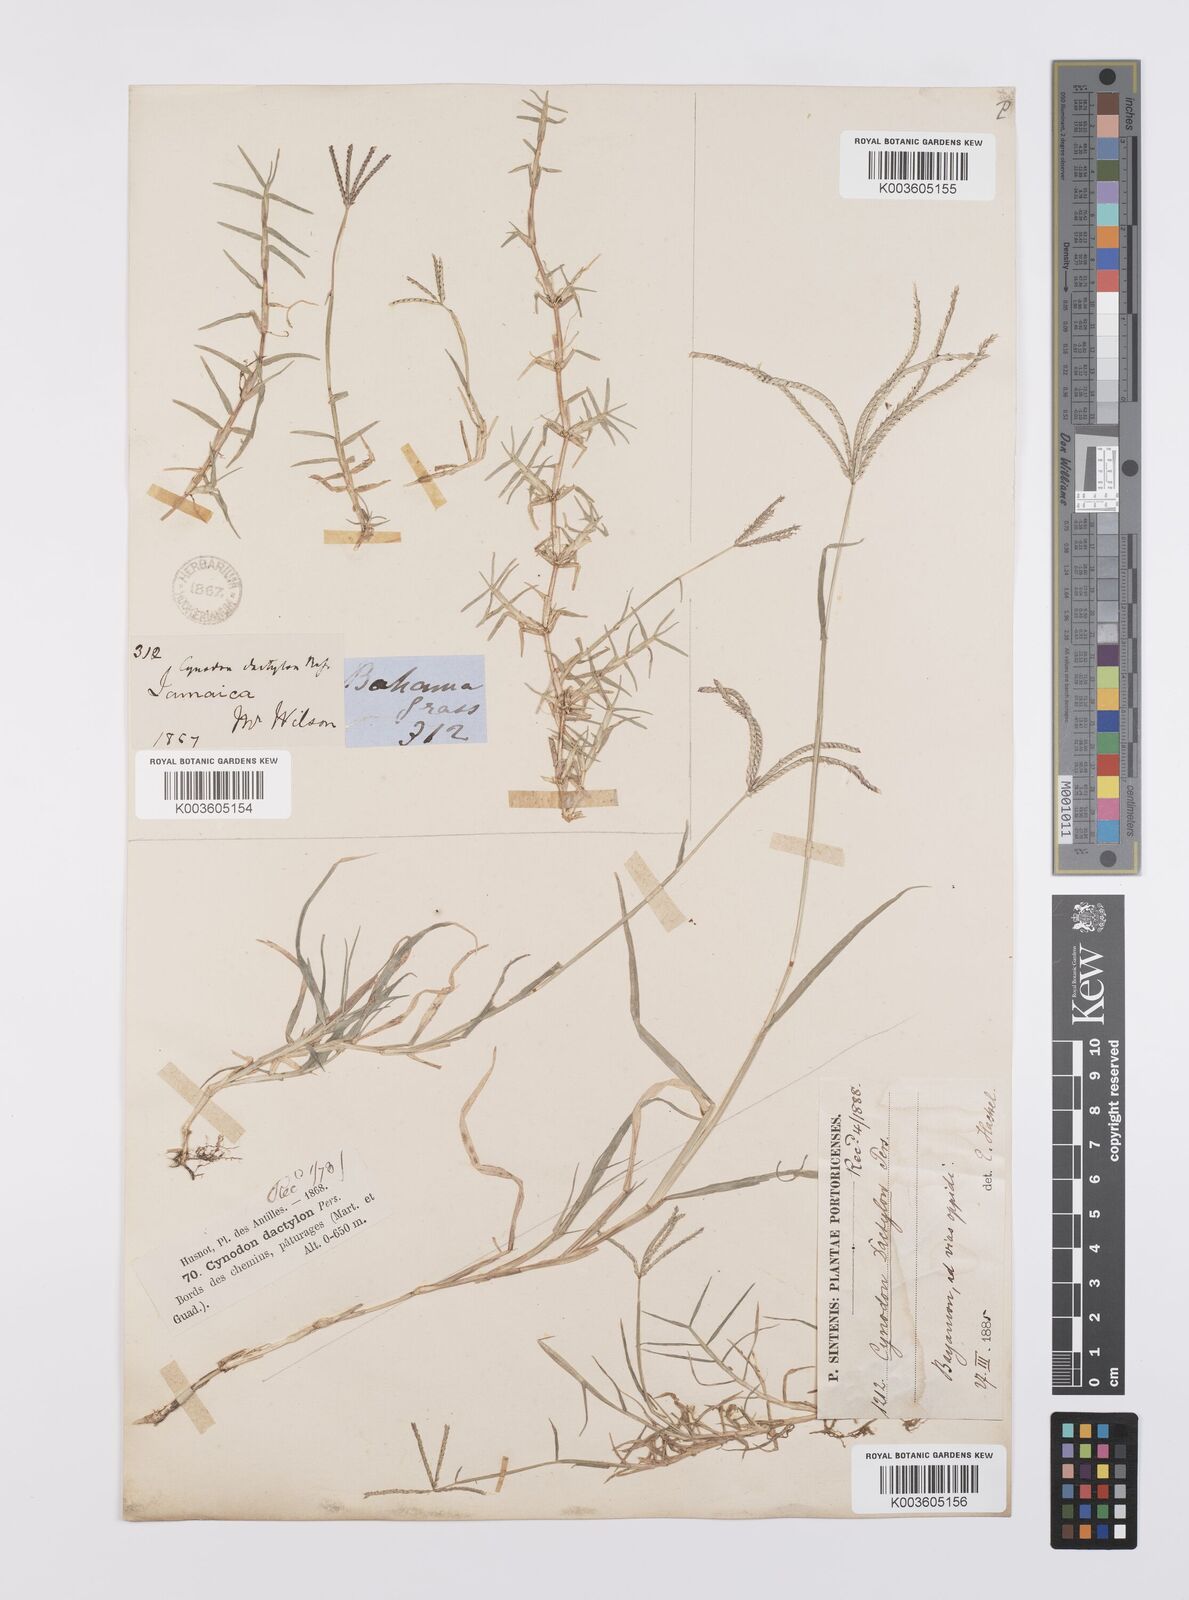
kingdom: Plantae
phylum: Tracheophyta
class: Liliopsida
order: Poales
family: Poaceae
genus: Cynodon
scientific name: Cynodon dactylon
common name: Bermuda grass
